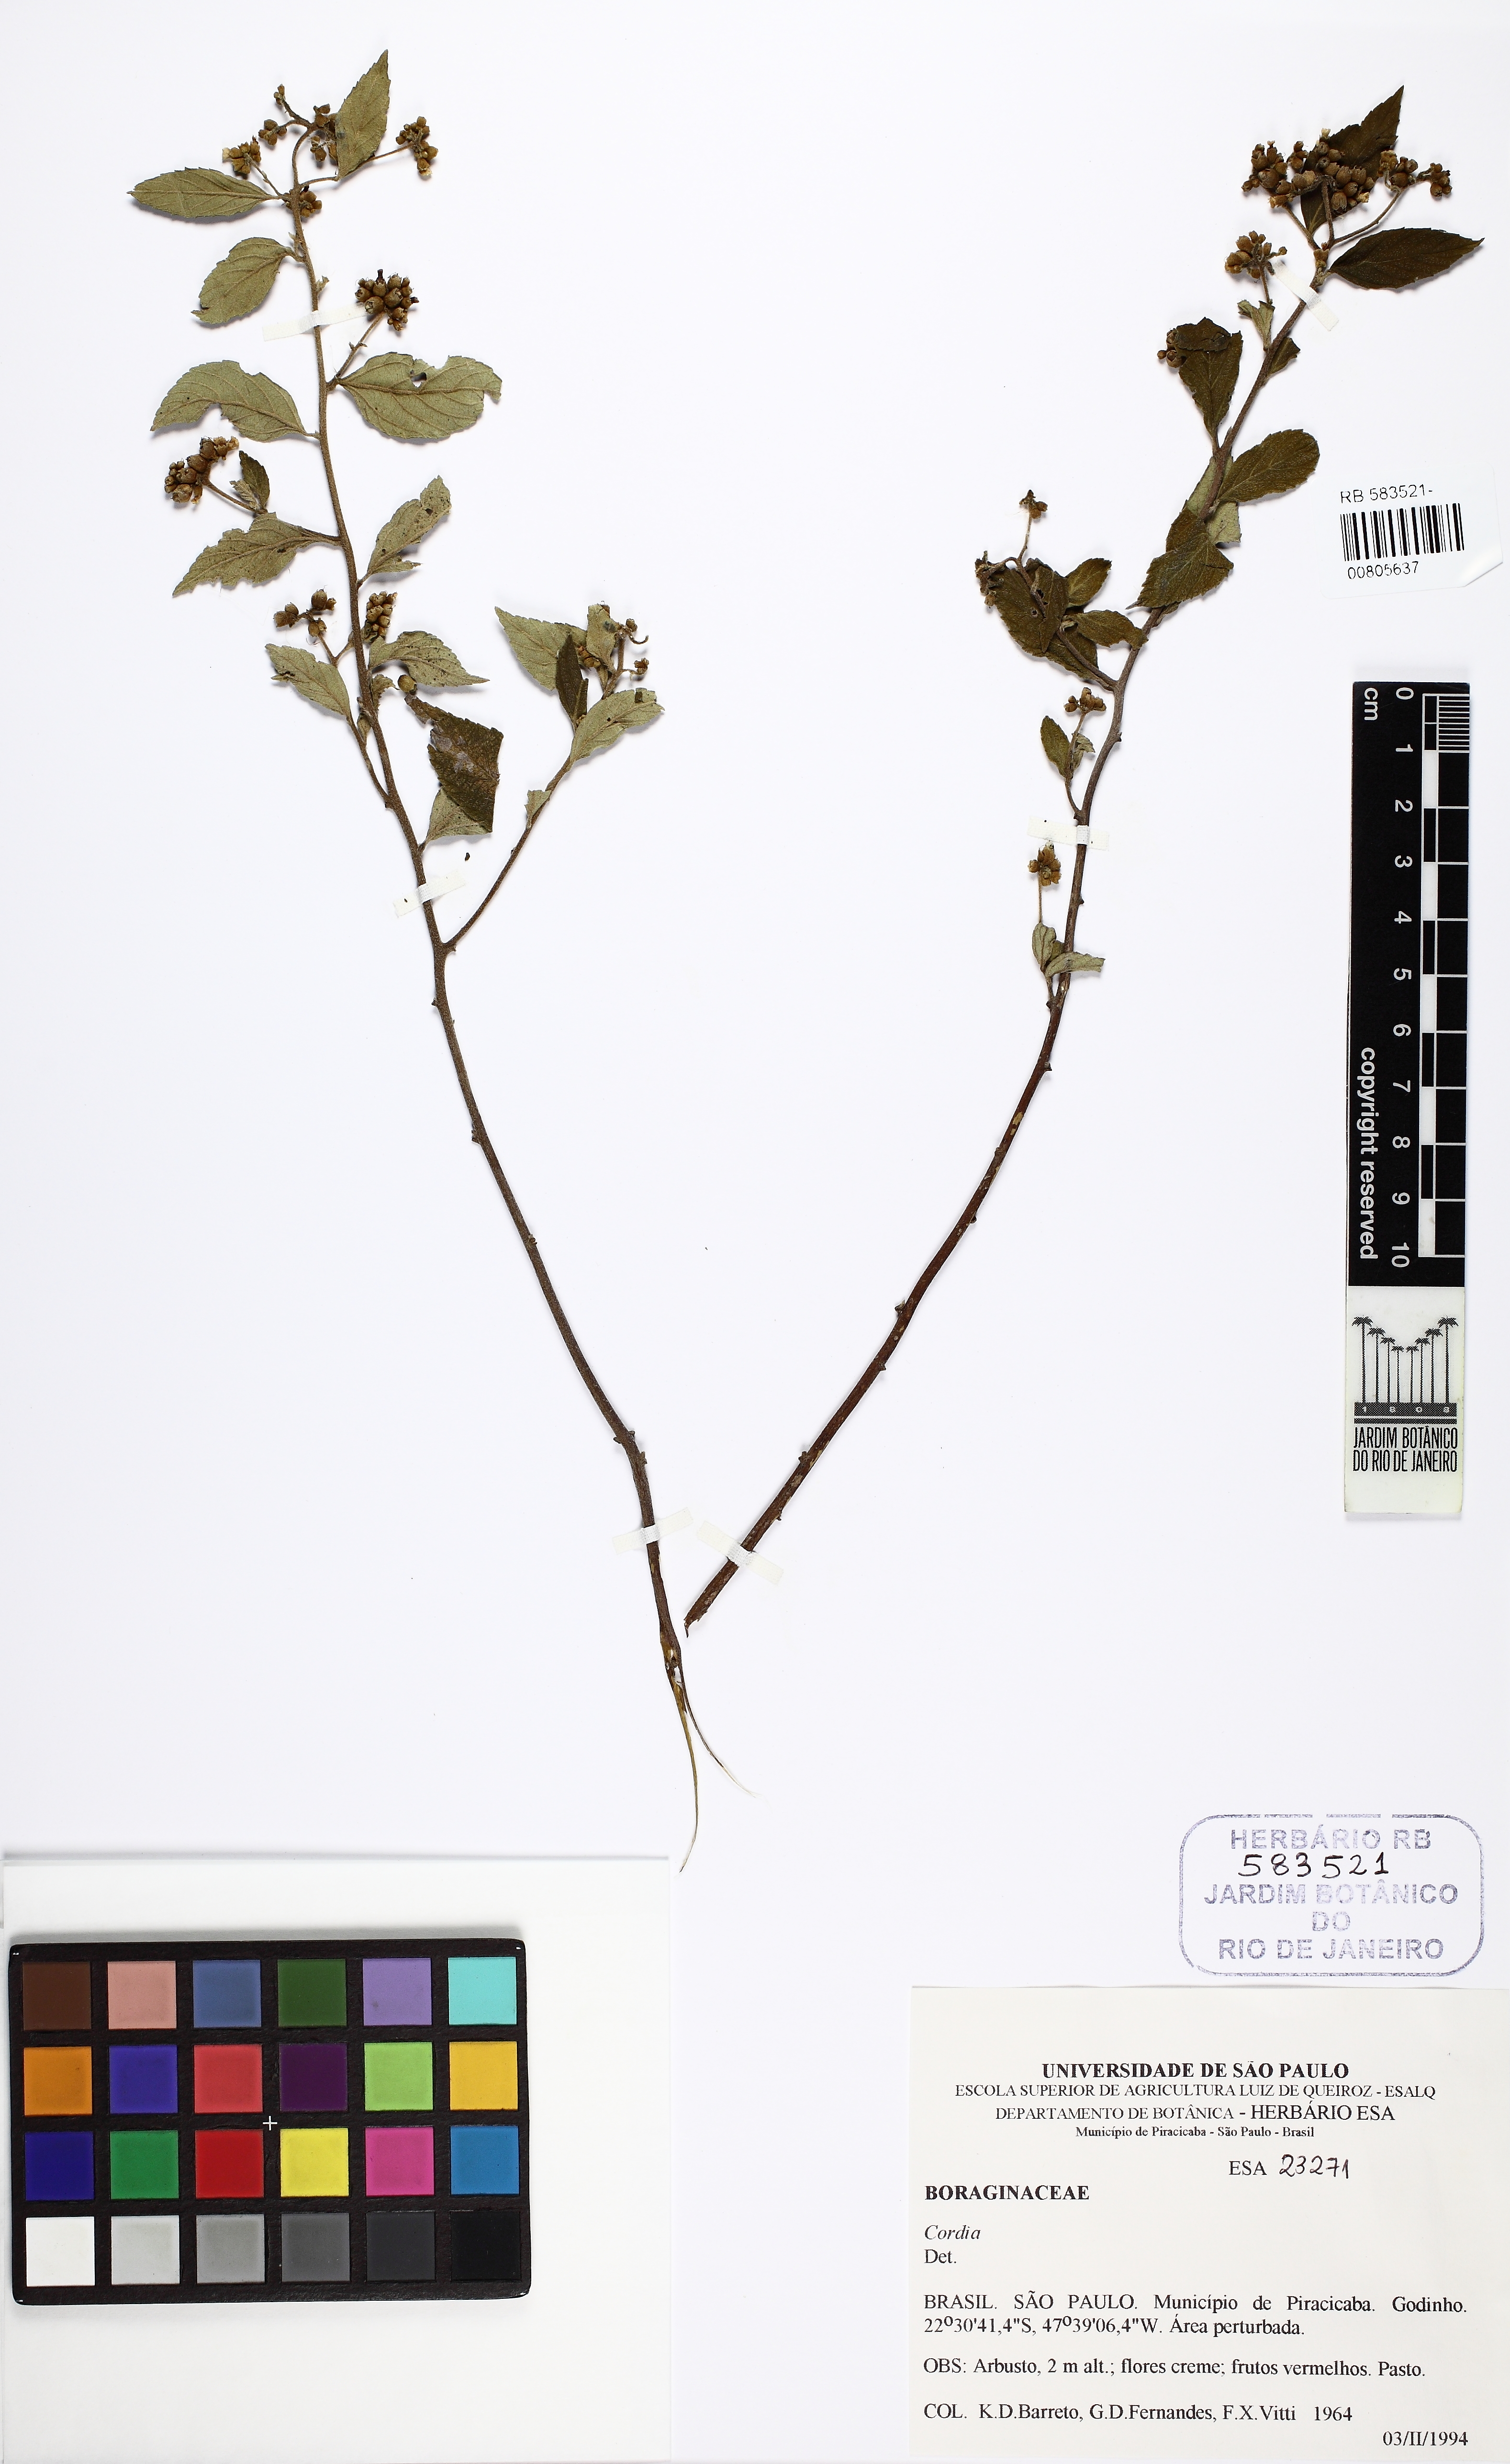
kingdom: Plantae
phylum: Tracheophyta
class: Magnoliopsida
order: Boraginales
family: Cordiaceae
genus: Cordia
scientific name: Cordia
